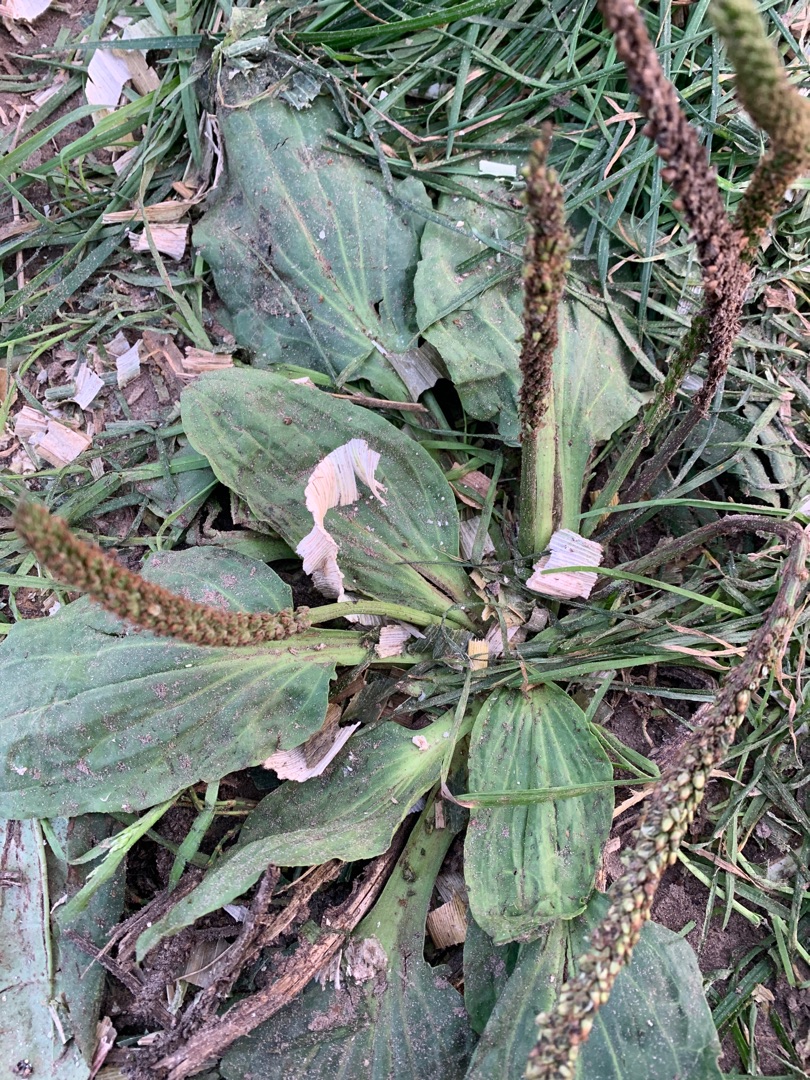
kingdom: Plantae
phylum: Tracheophyta
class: Magnoliopsida
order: Lamiales
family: Plantaginaceae
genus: Plantago
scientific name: Plantago major
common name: Glat vejbred
